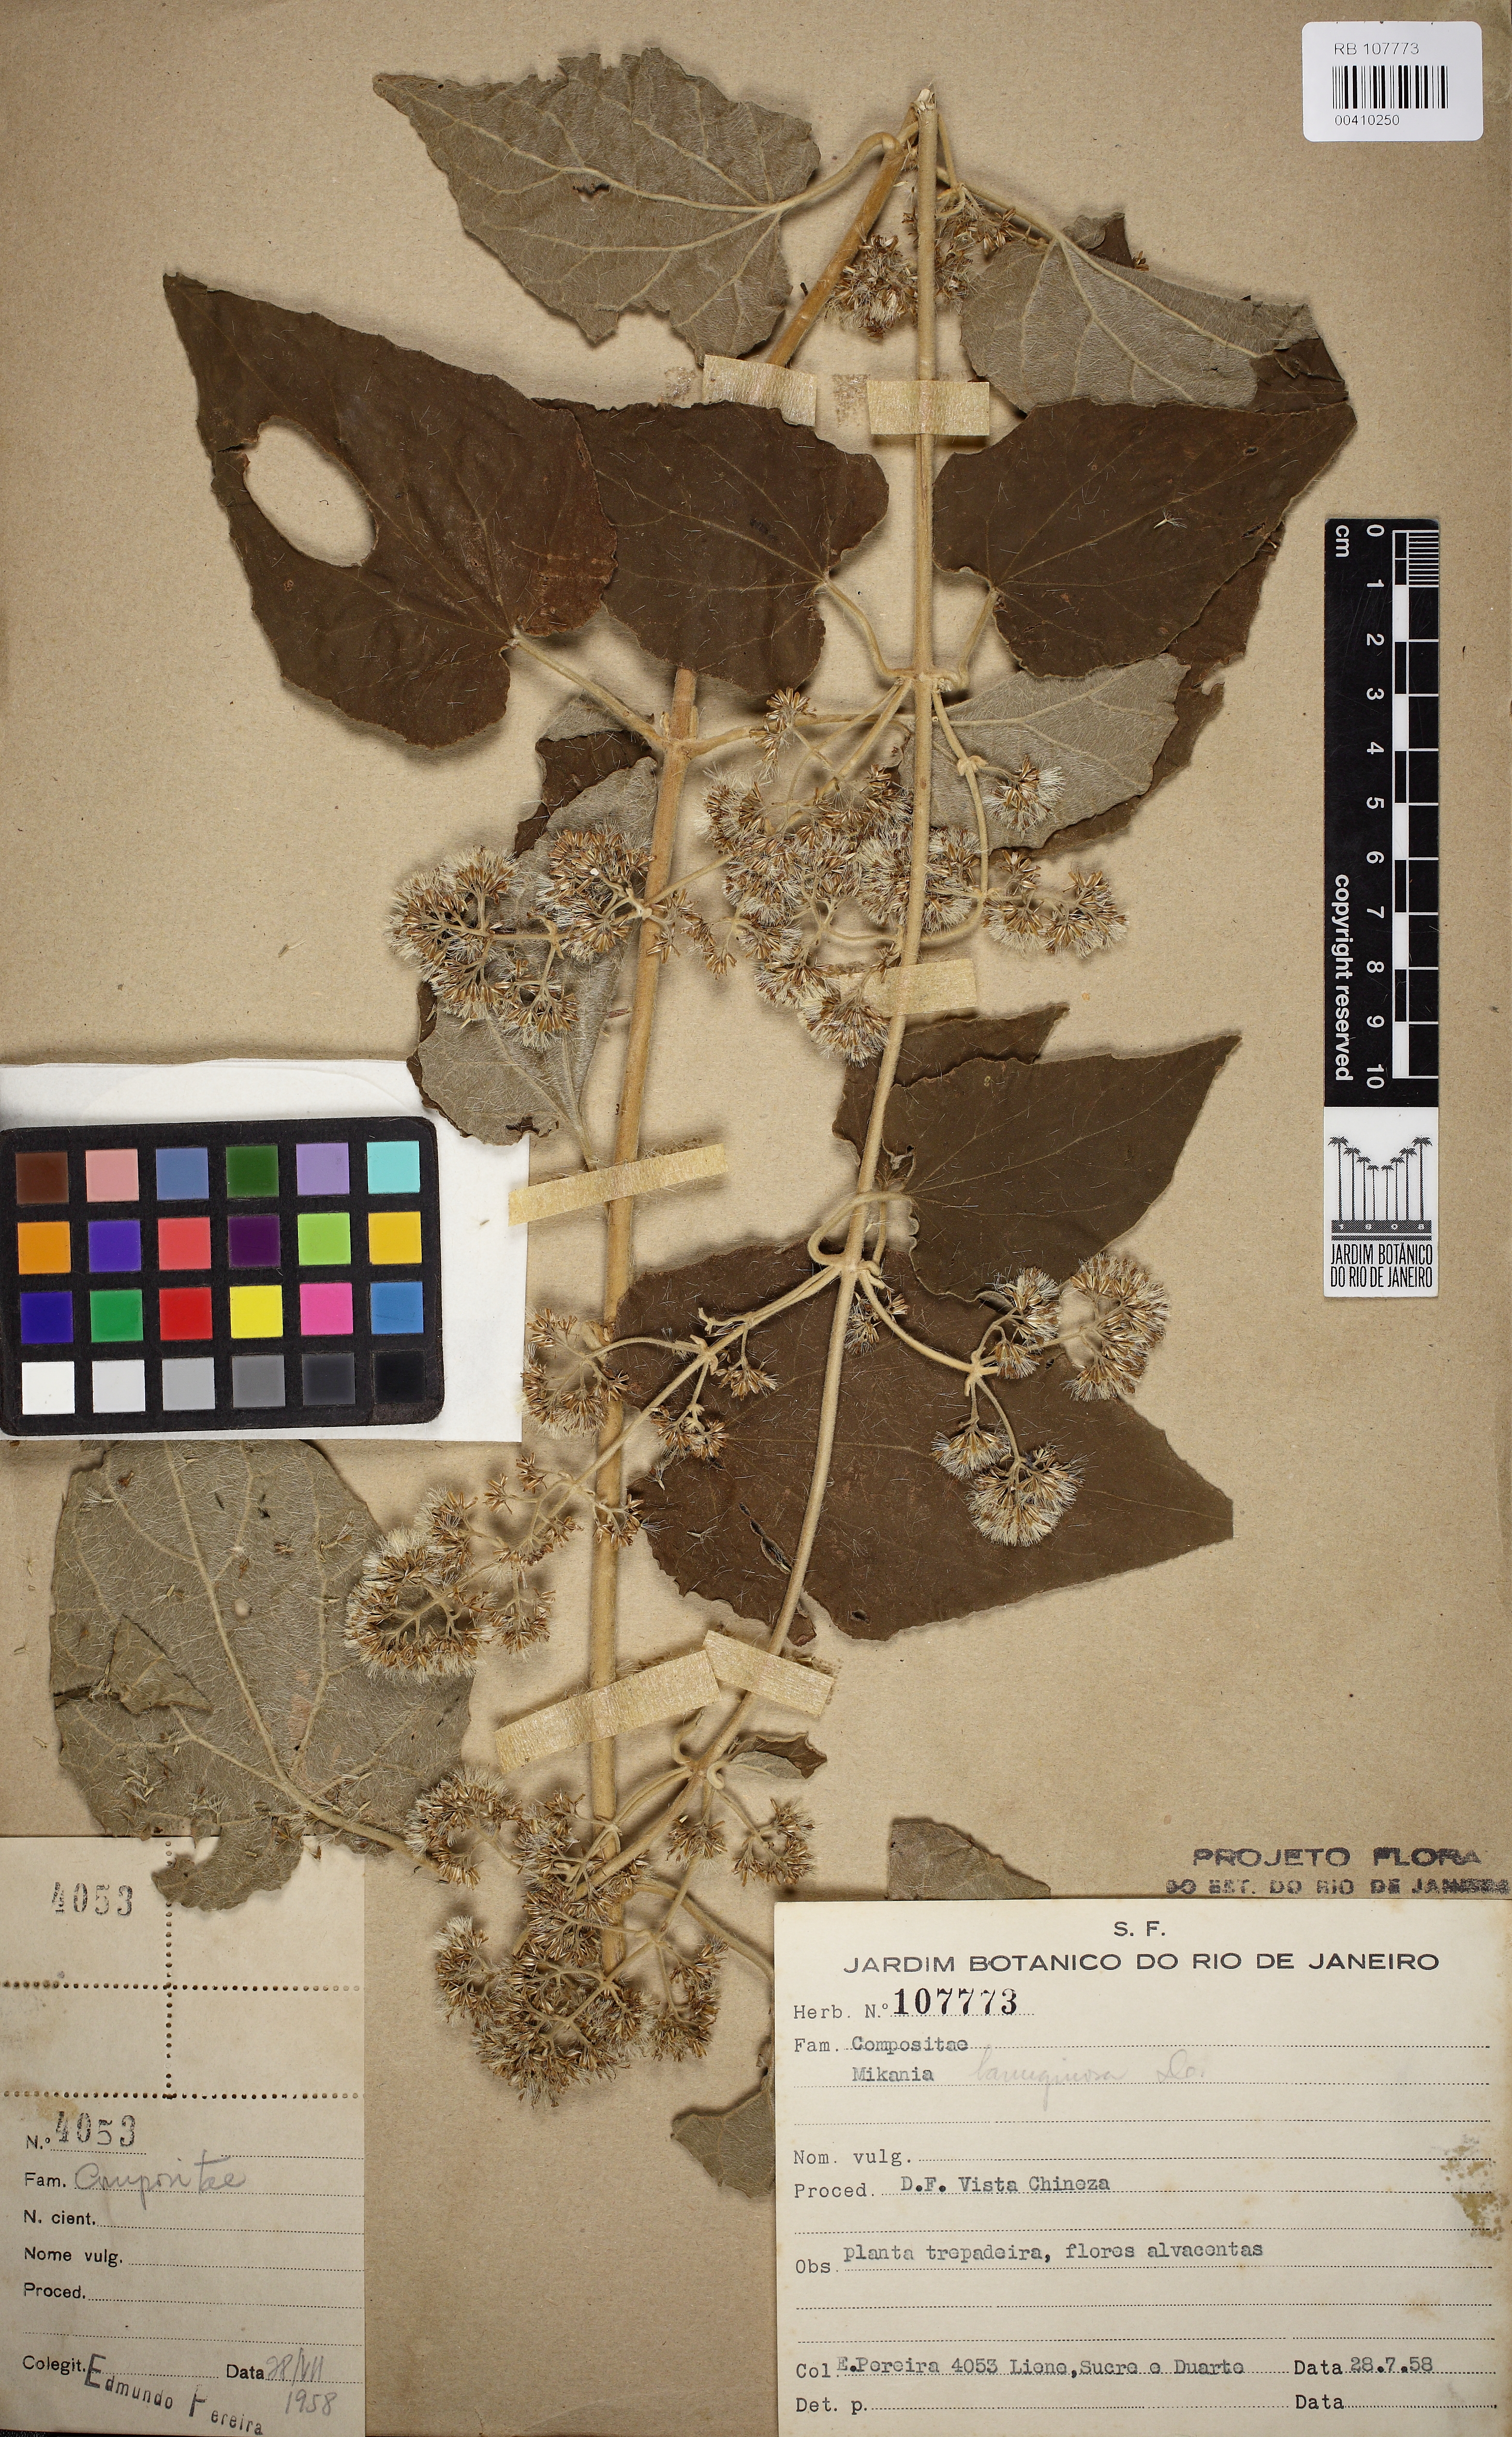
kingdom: Plantae
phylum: Tracheophyta
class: Magnoliopsida
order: Asterales
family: Asteraceae
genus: Mikania
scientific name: Mikania banisteriae
